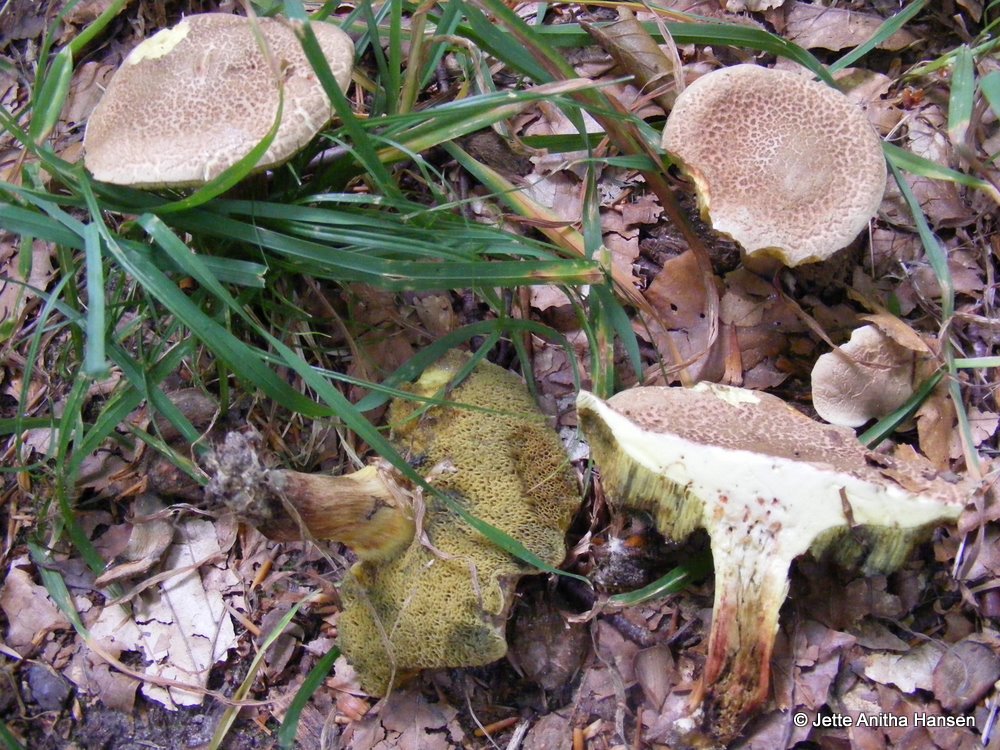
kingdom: Fungi
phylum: Basidiomycota
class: Agaricomycetes
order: Boletales
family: Boletaceae
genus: Xerocomellus
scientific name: Xerocomellus chrysenteron
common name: rødsprukken rørhat
